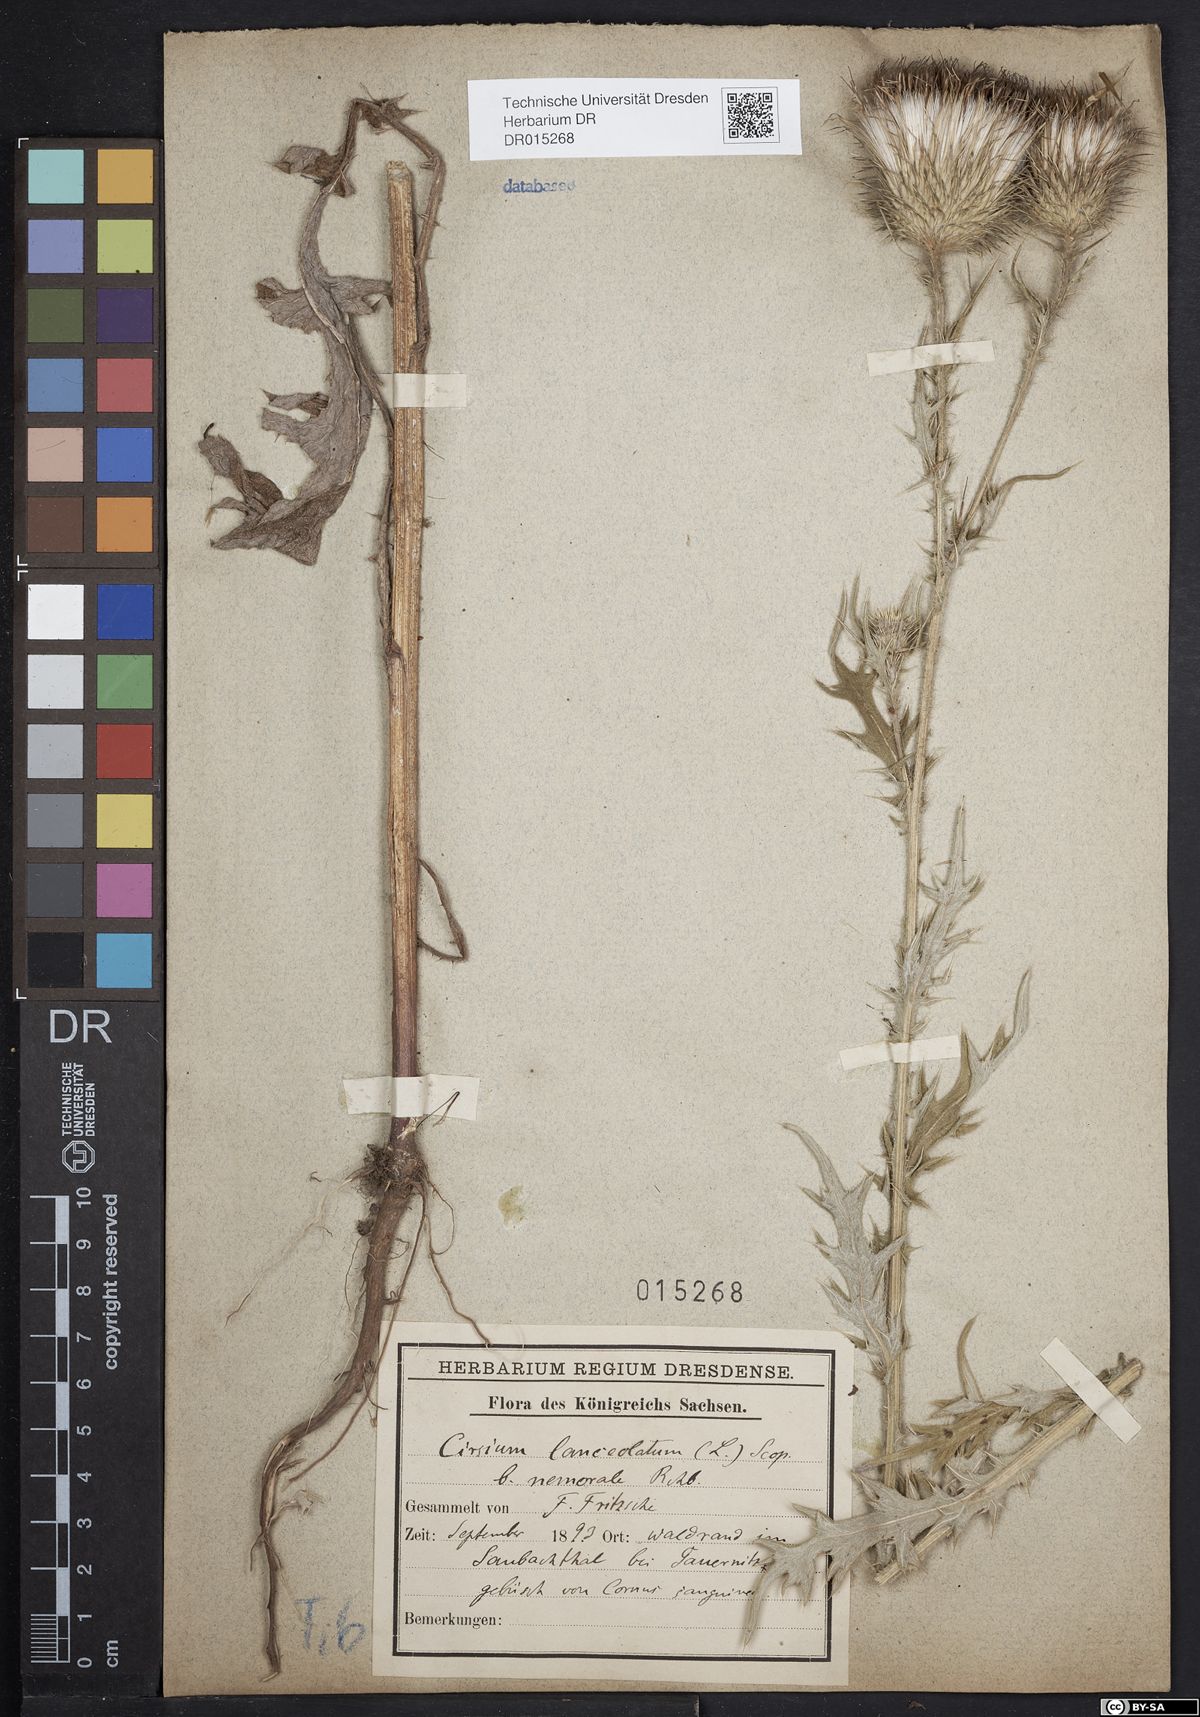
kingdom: Plantae
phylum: Tracheophyta
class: Magnoliopsida
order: Asterales
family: Asteraceae
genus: Cirsium
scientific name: Cirsium vulgare
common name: Bull thistle
